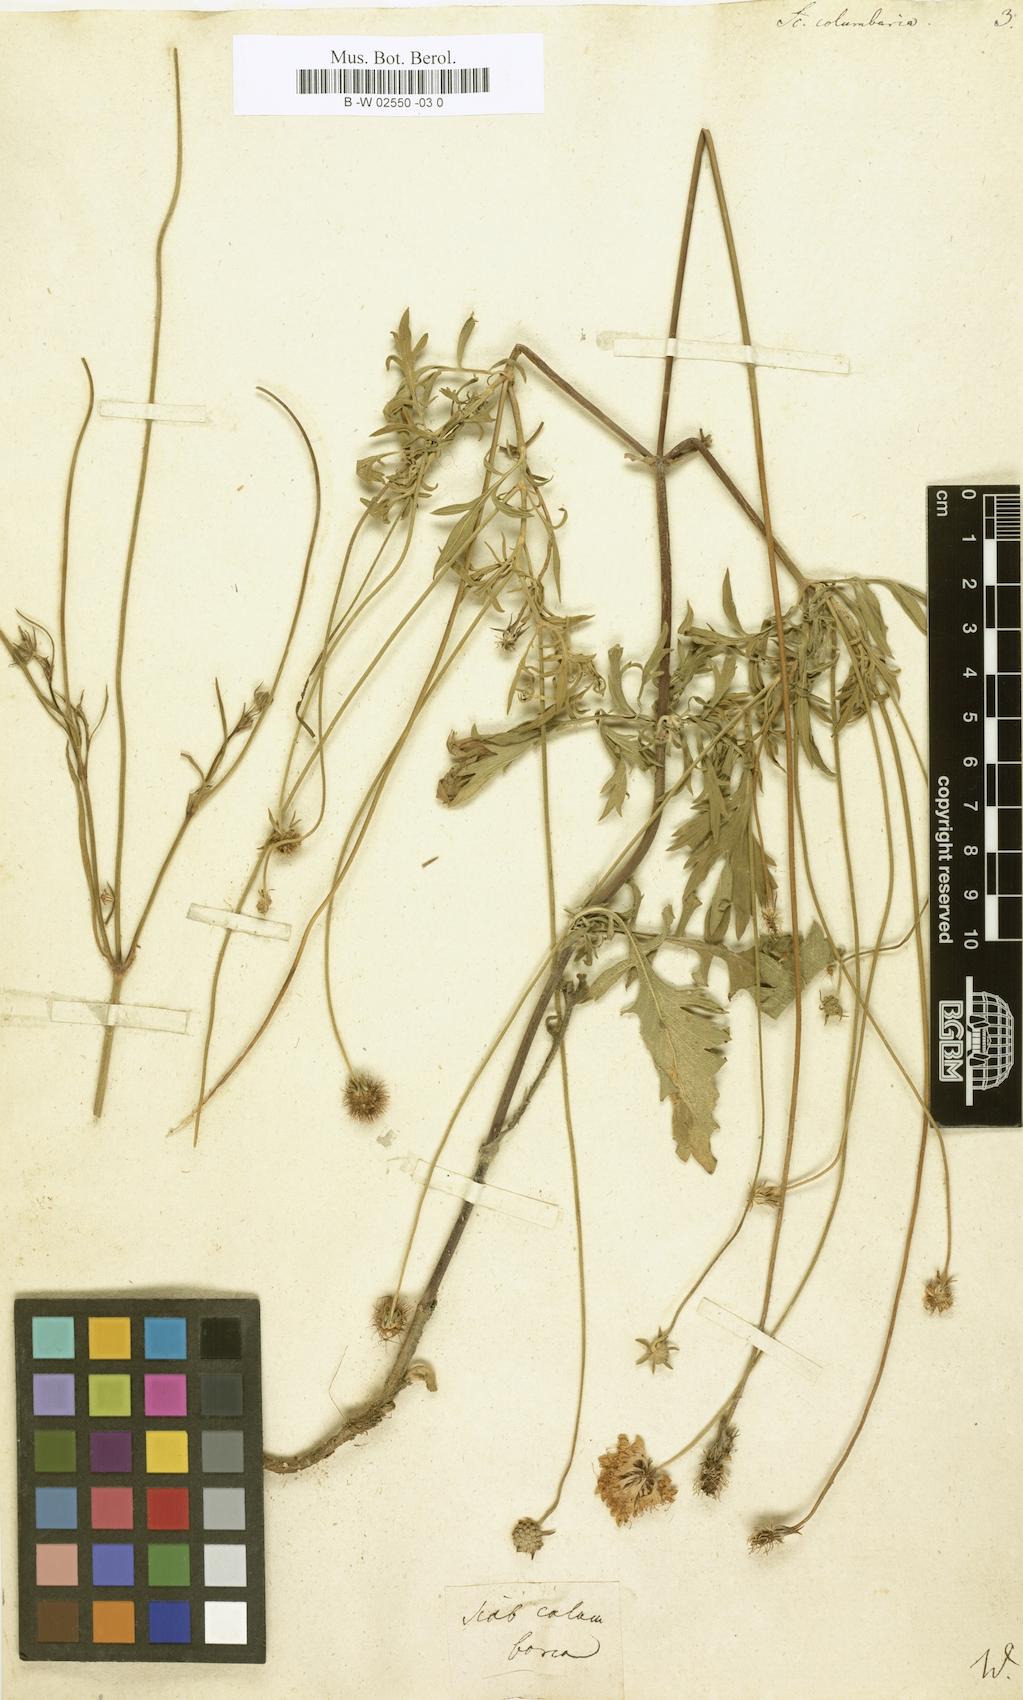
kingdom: Plantae
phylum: Tracheophyta
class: Magnoliopsida
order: Dipsacales
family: Caprifoliaceae
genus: Scabiosa
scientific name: Scabiosa columbaria
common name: Small scabious
